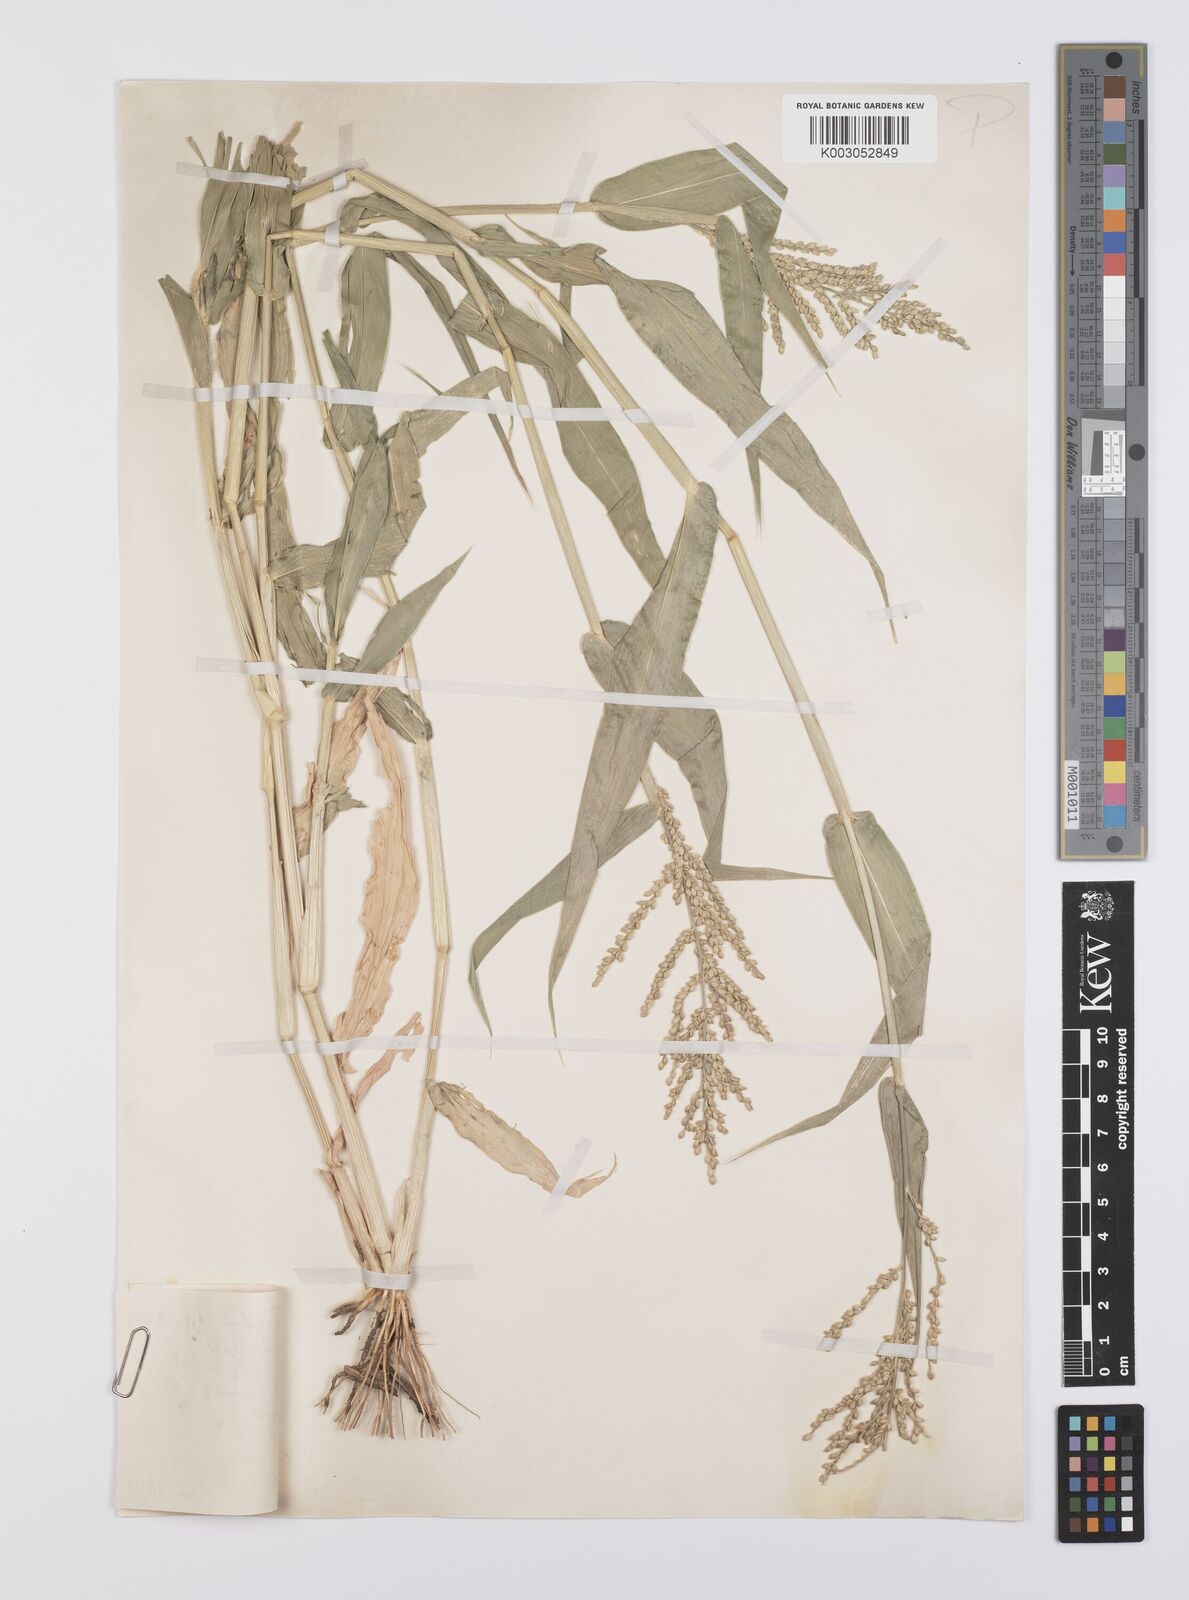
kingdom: Plantae
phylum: Tracheophyta
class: Liliopsida
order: Poales
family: Poaceae
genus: Urochloa
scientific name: Urochloa lata
